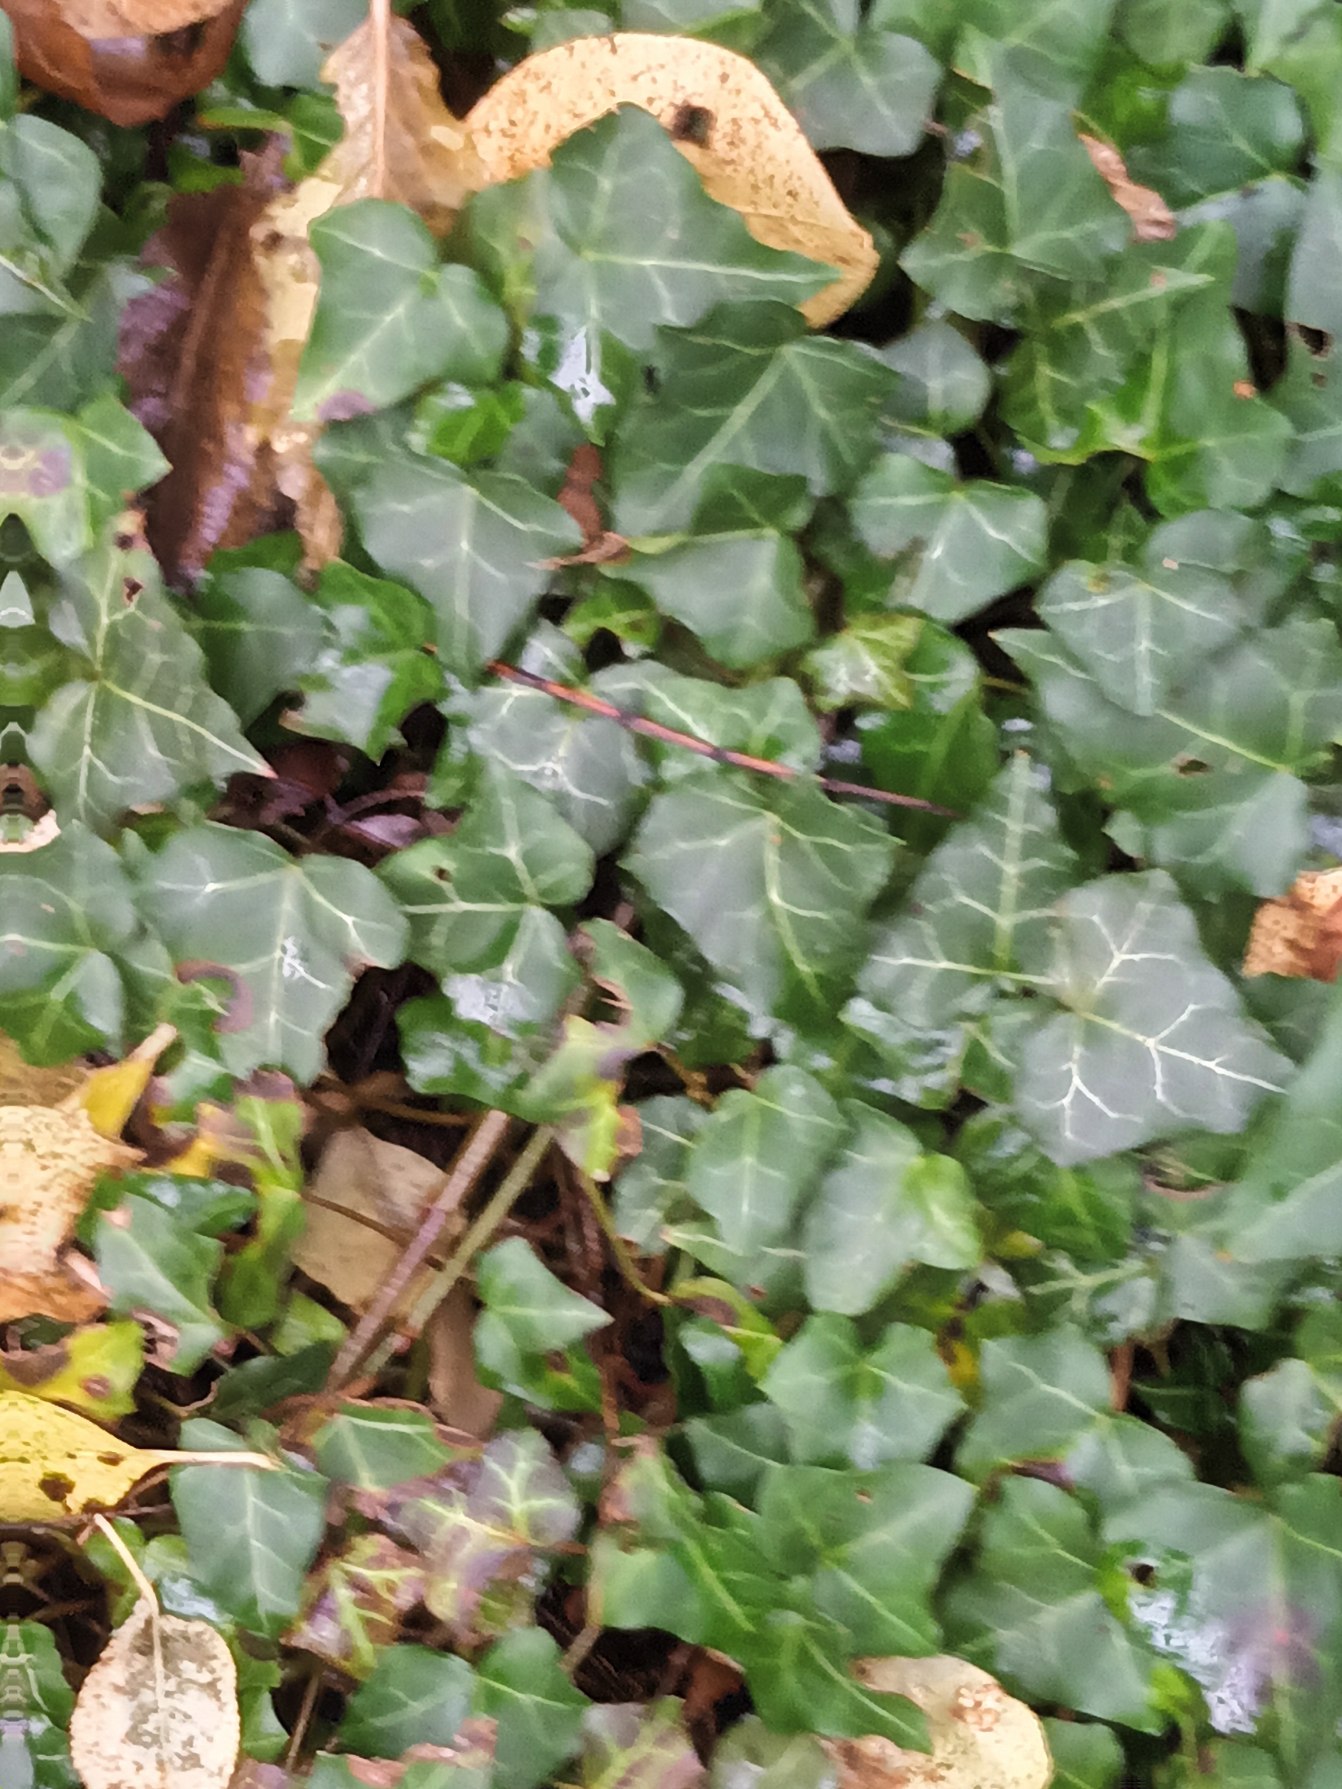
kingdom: Plantae
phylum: Tracheophyta
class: Magnoliopsida
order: Apiales
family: Araliaceae
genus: Hedera
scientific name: Hedera helix
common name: Vedbend
